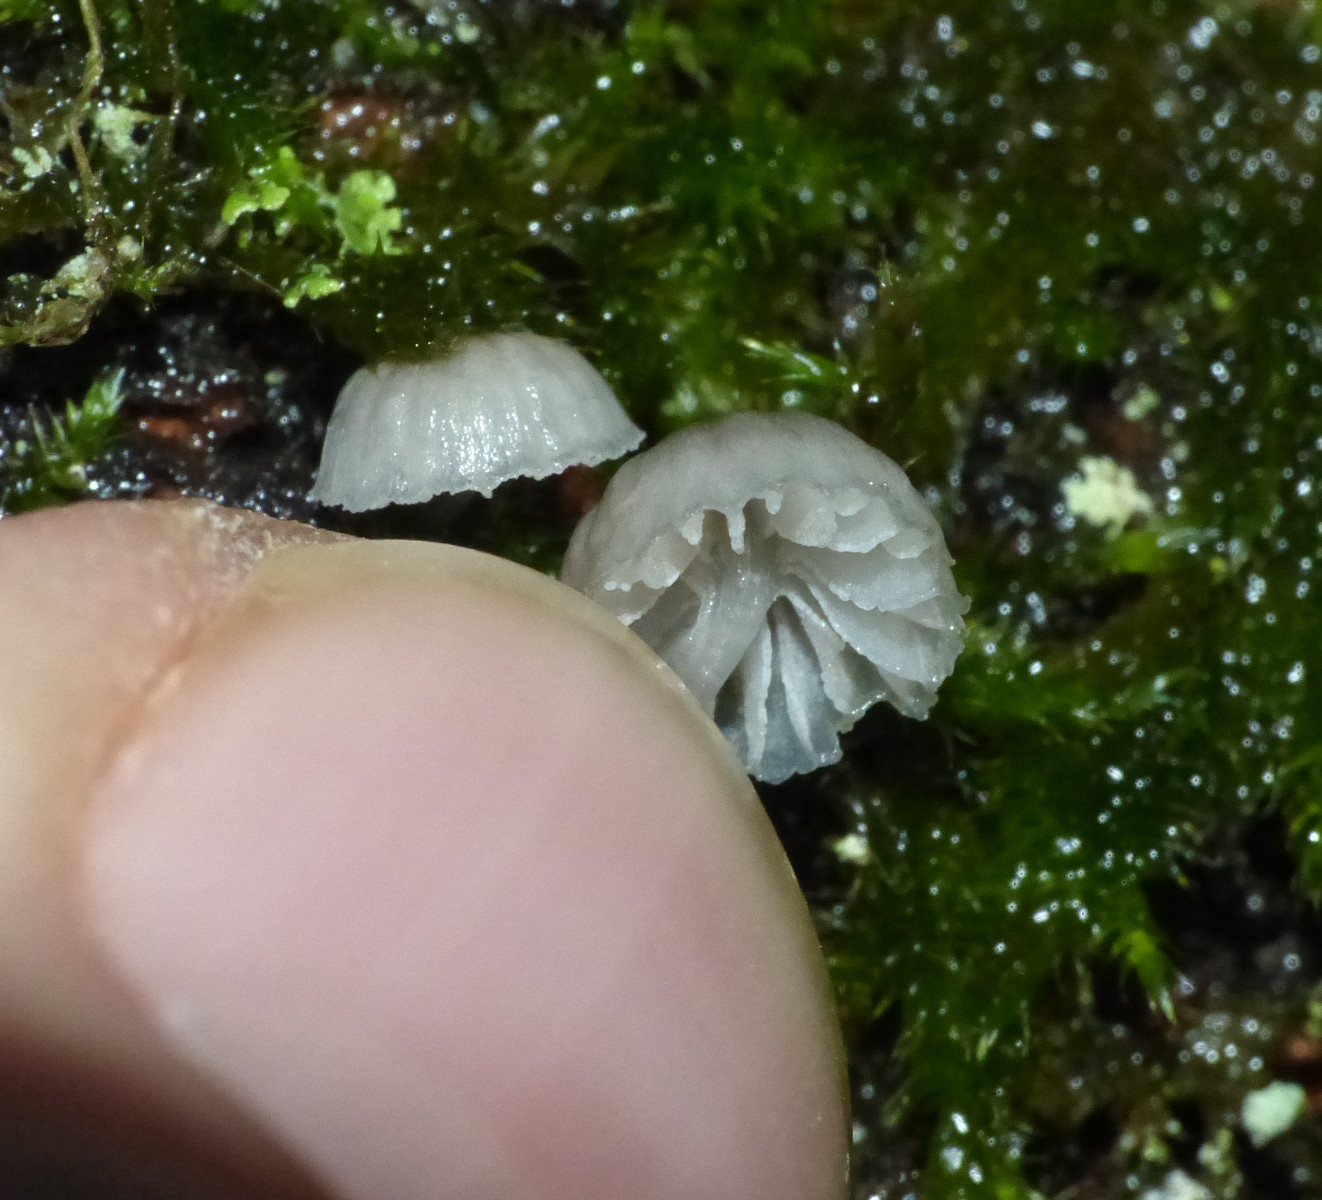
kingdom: Fungi
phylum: Basidiomycota
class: Agaricomycetes
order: Agaricales
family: Mycenaceae
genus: Mycena
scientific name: Mycena pseudocorticola
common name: gråblå bark-huesvamp
